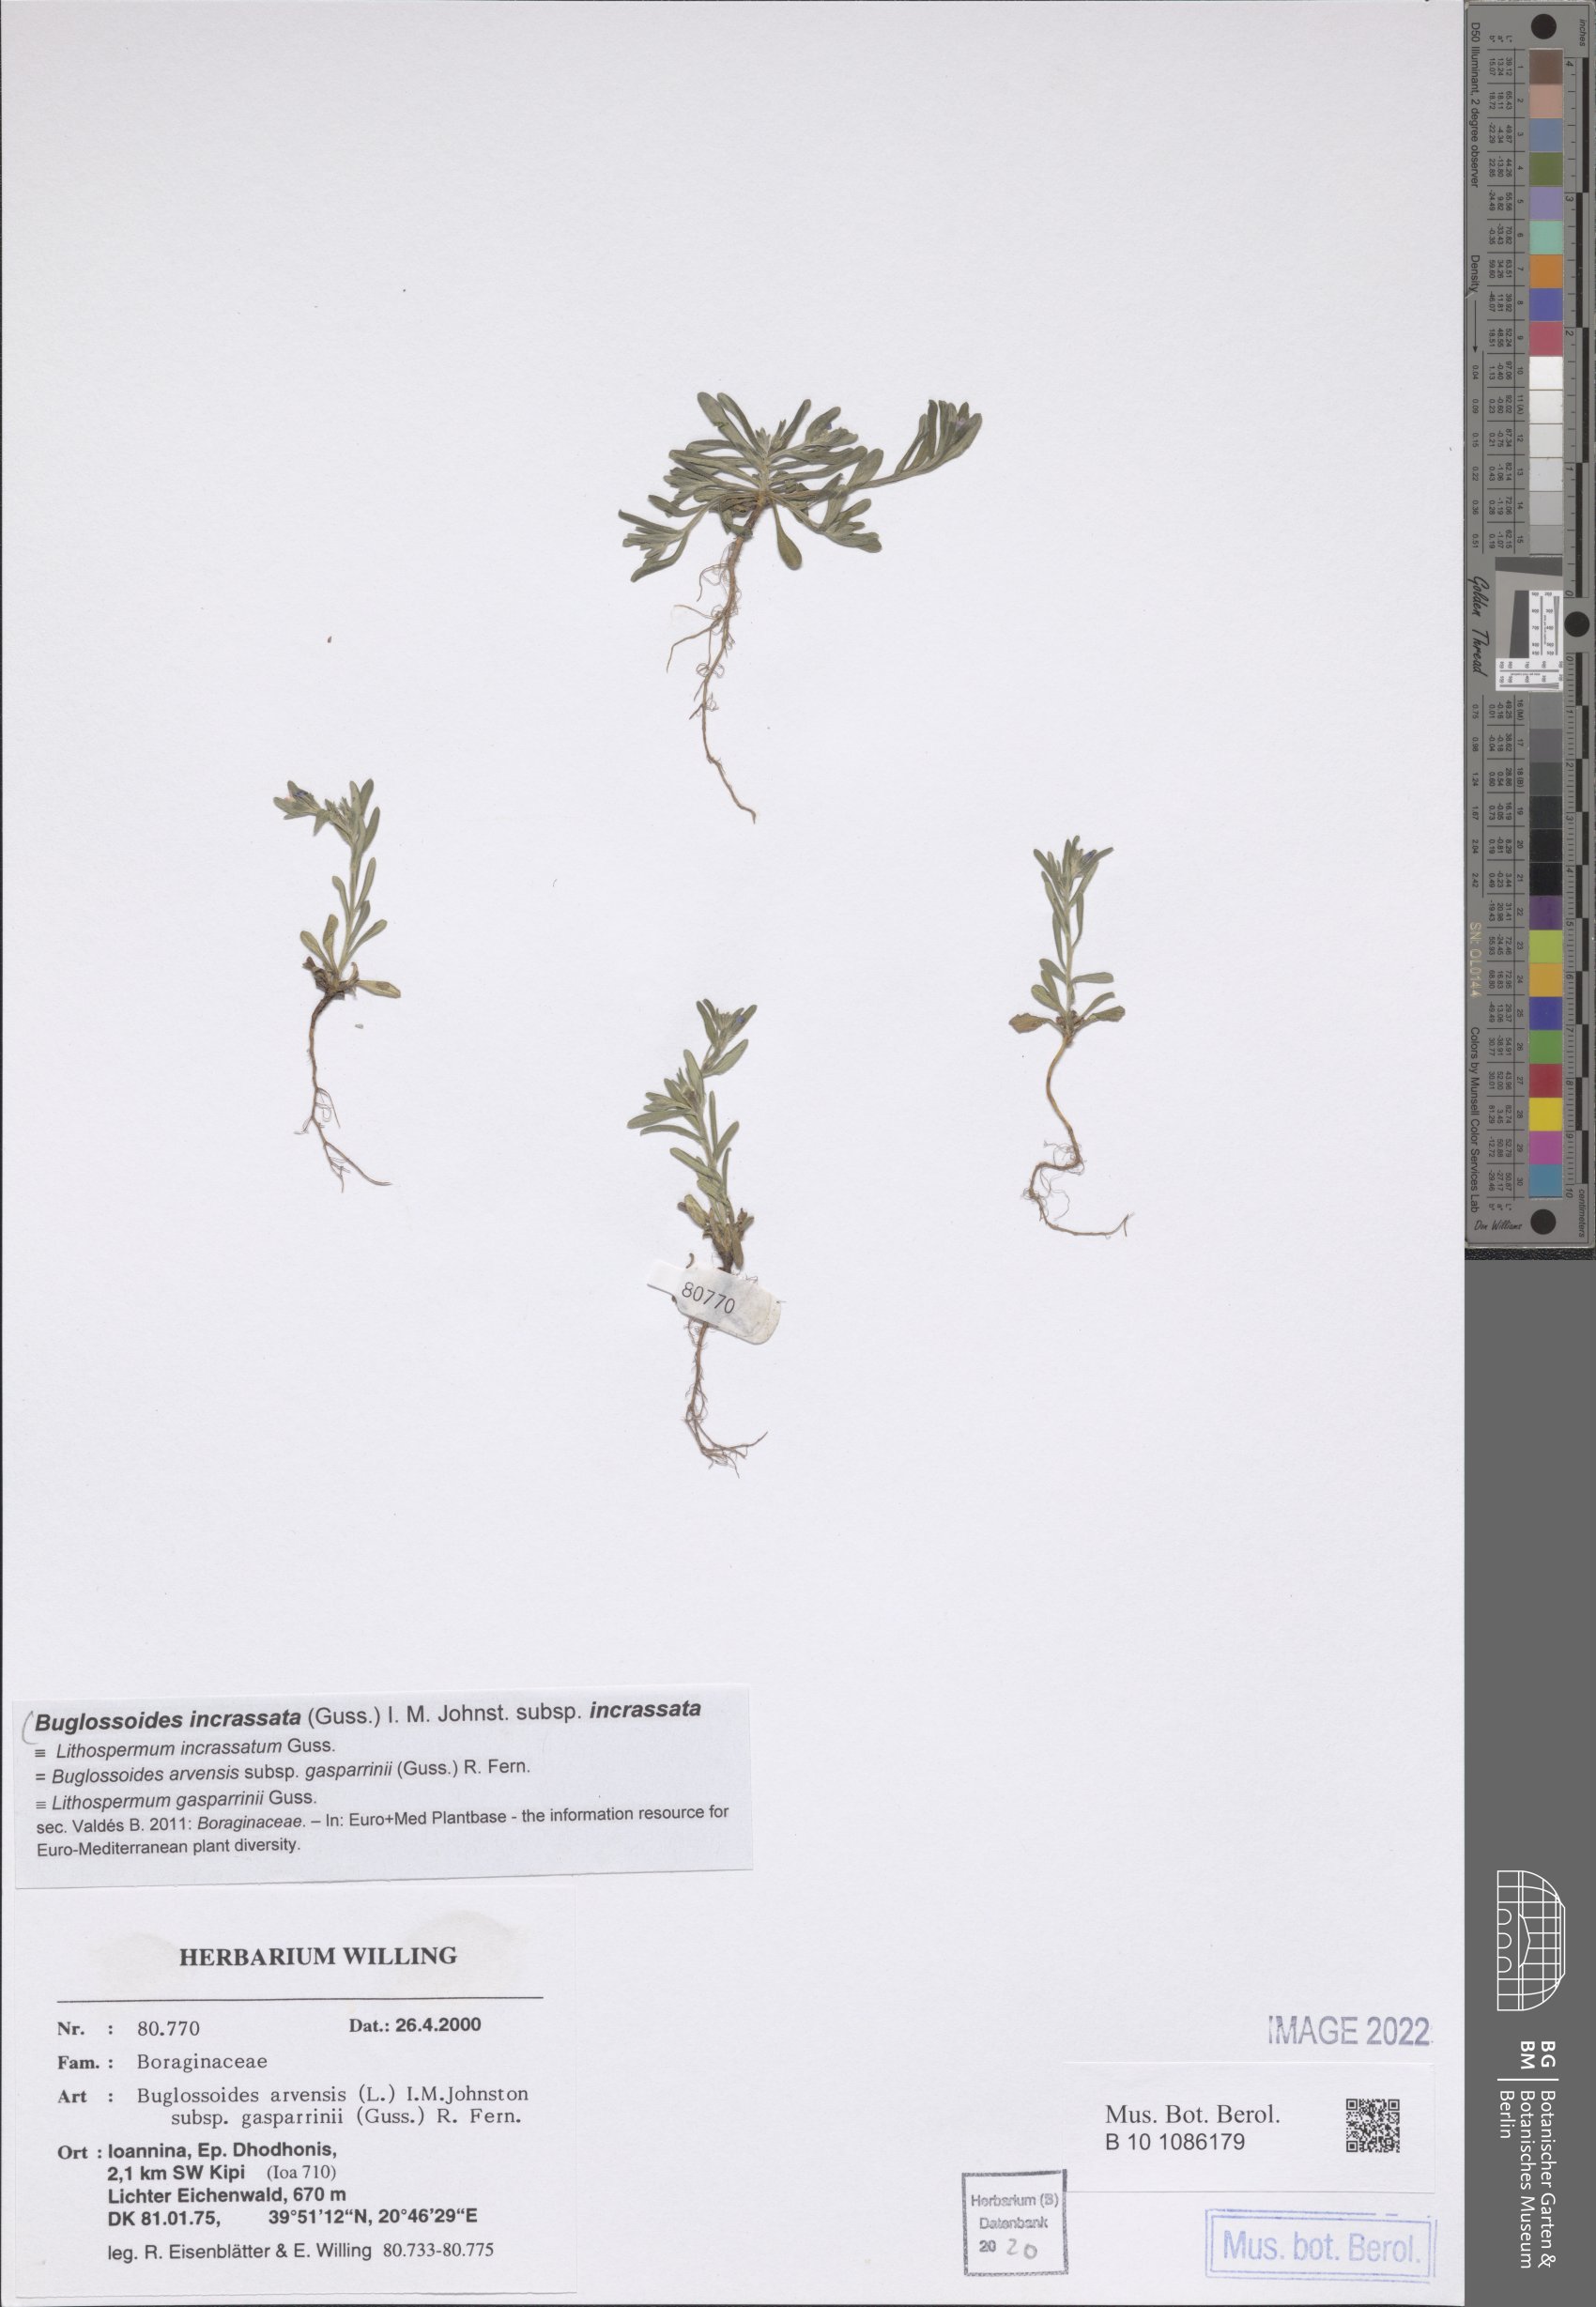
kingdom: Plantae
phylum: Tracheophyta
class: Magnoliopsida
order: Boraginales
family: Boraginaceae
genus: Buglossoides
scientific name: Buglossoides incrassata
